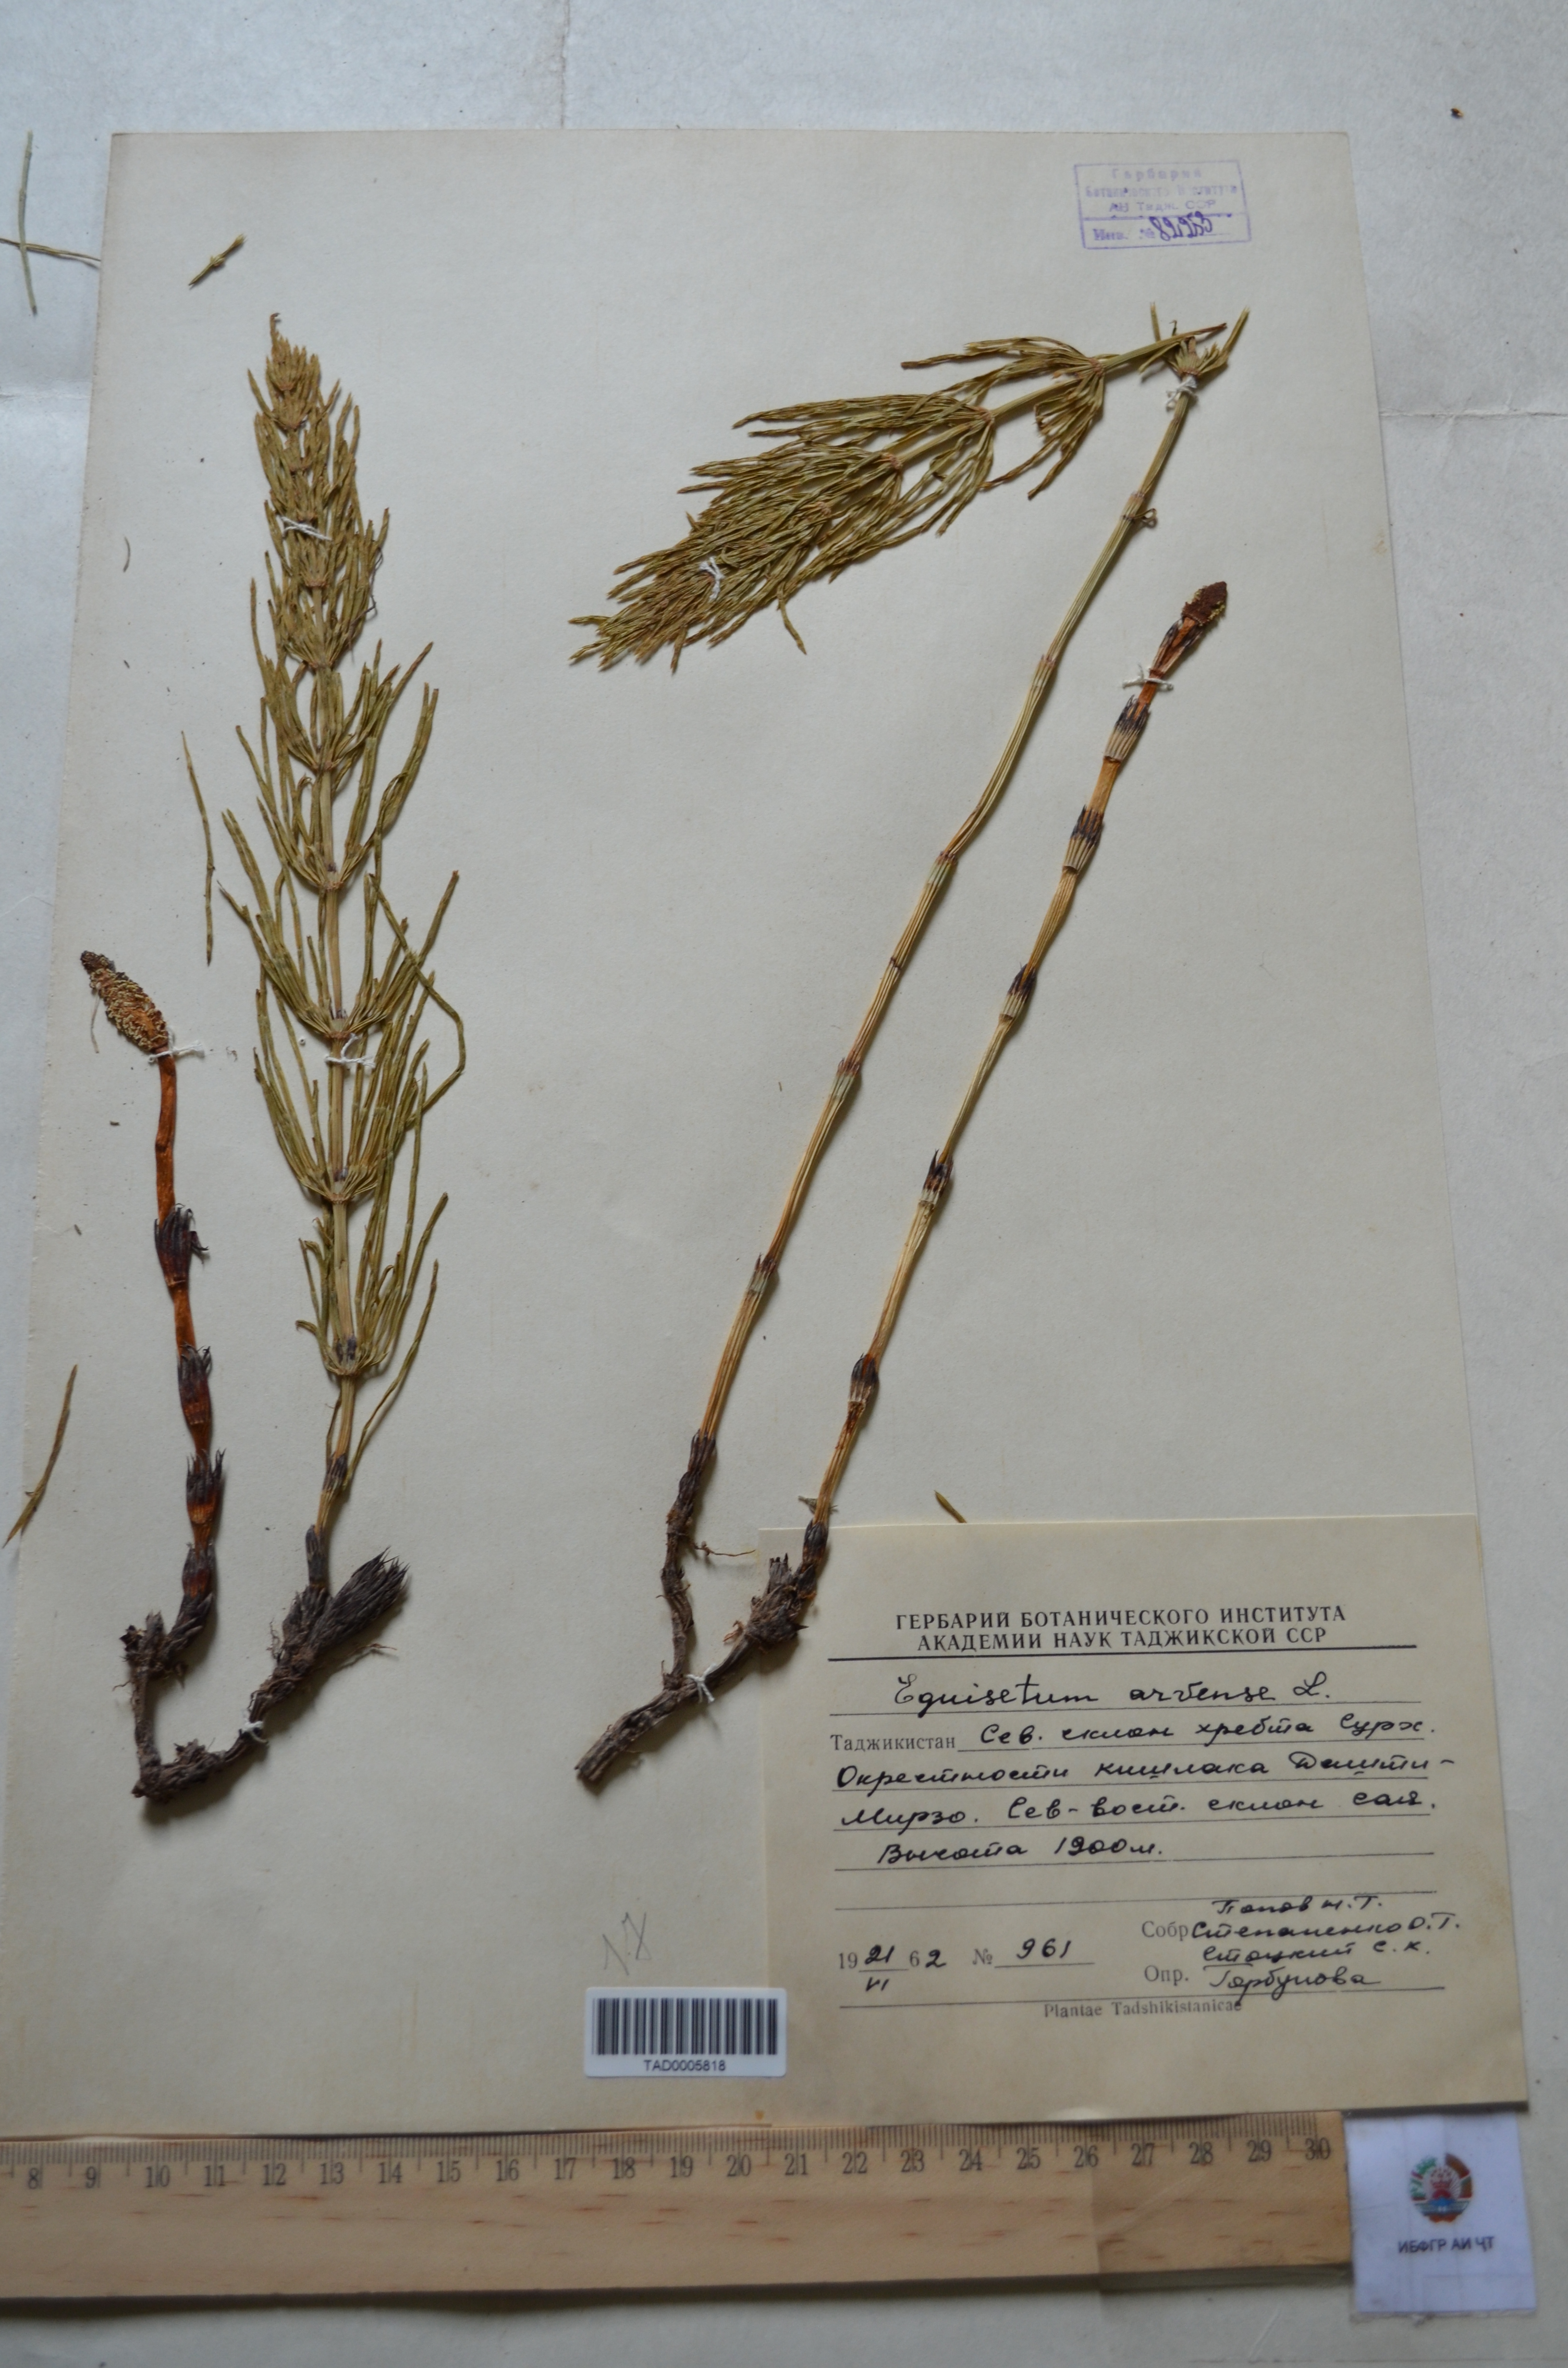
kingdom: Plantae
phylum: Tracheophyta
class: Polypodiopsida
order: Equisetales
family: Equisetaceae
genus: Equisetum
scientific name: Equisetum arvense
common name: Field horsetail
